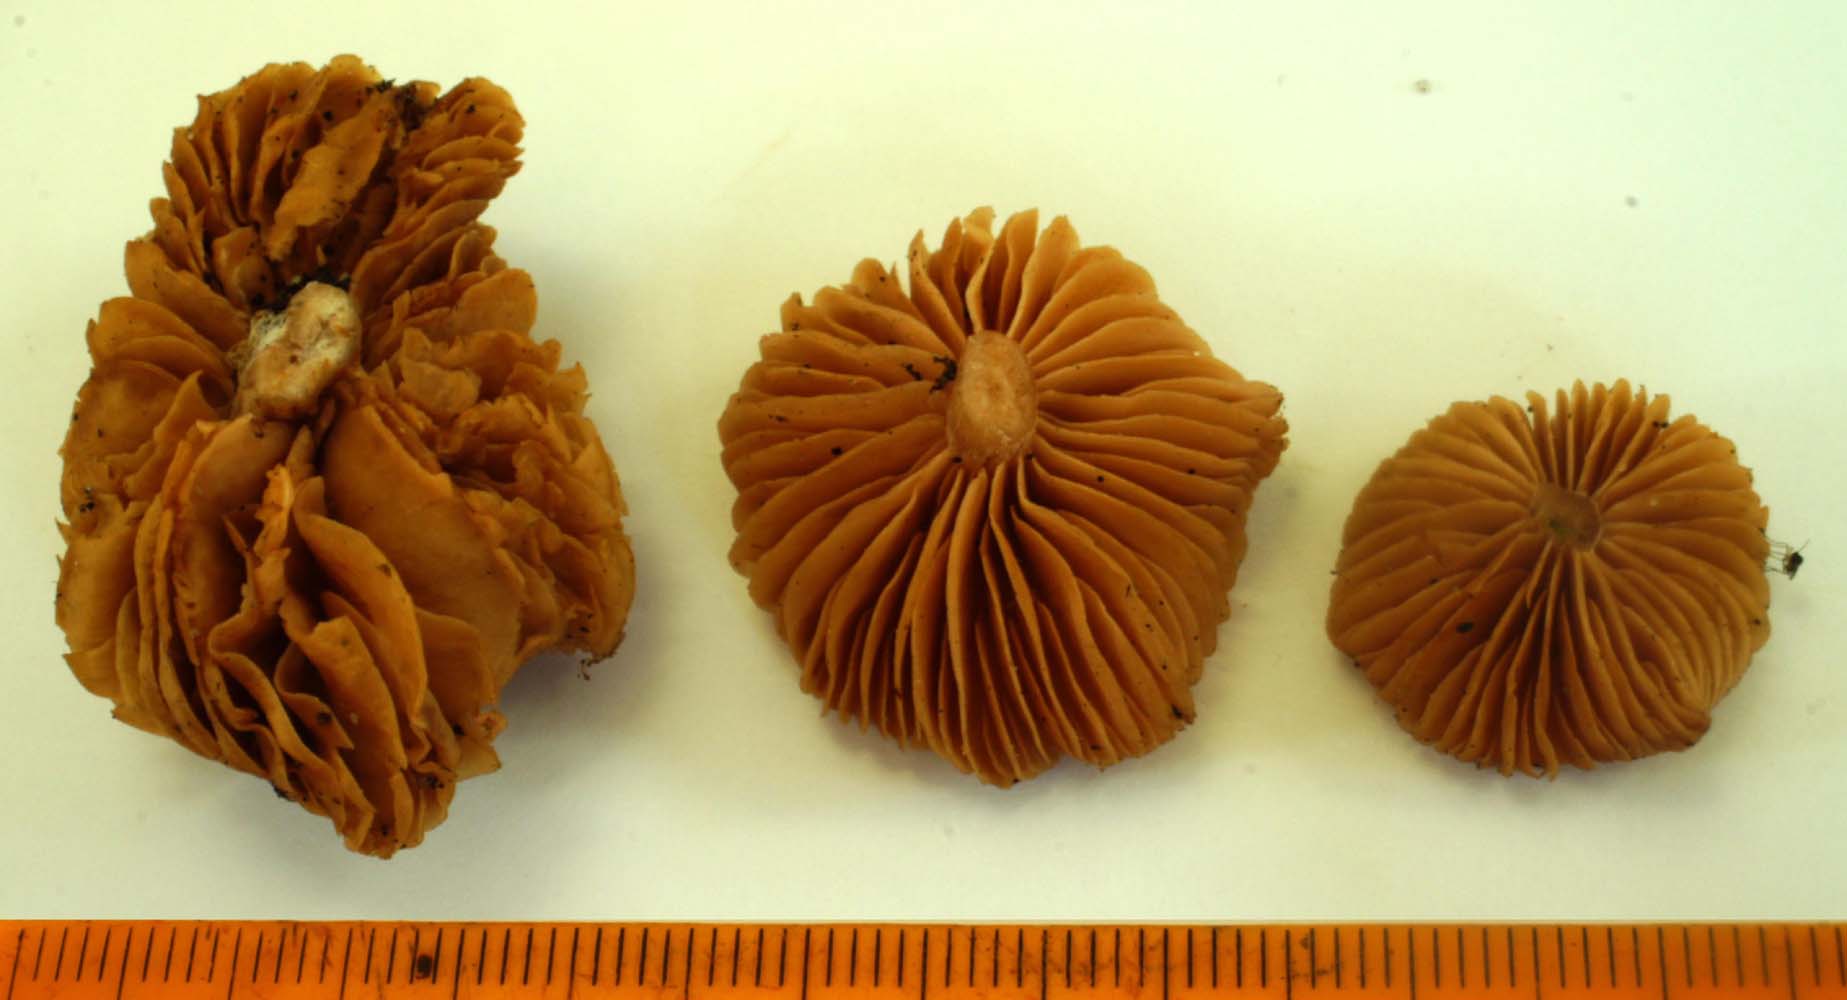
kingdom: Fungi
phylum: Basidiomycota
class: Agaricomycetes
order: Agaricales
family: Tubariaceae
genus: Tubaria
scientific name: Tubaria furfuracea
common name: kliddet fnughat
